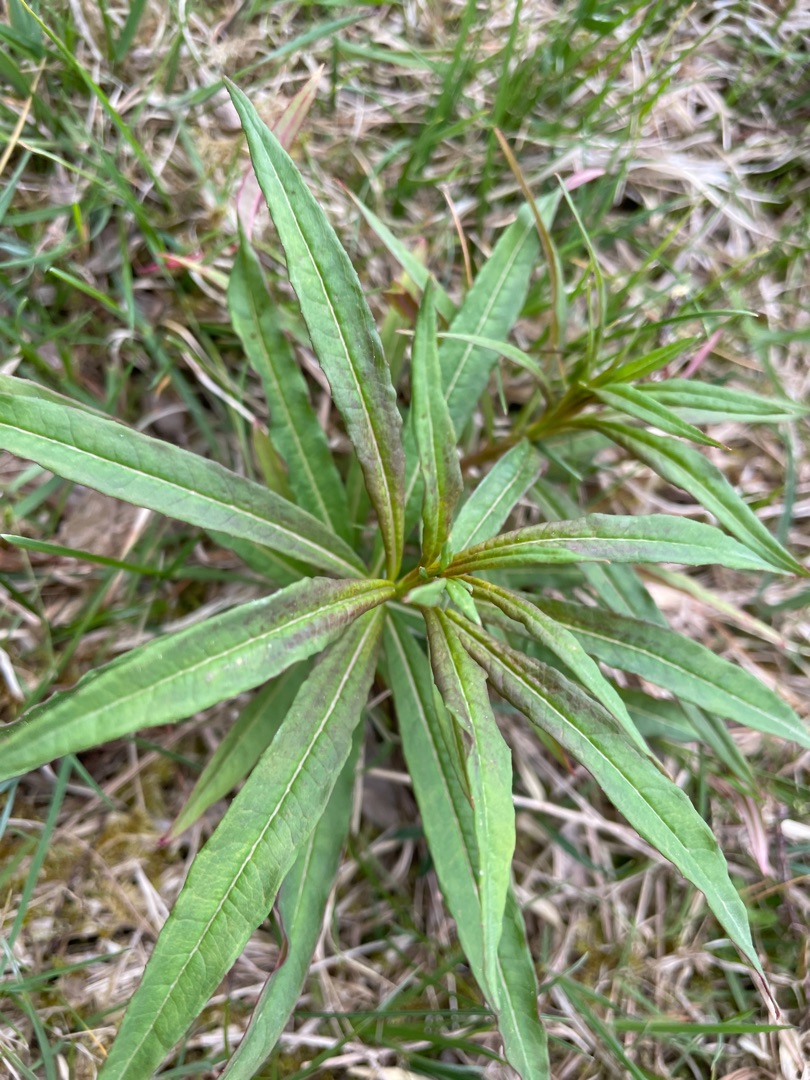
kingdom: Plantae
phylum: Tracheophyta
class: Magnoliopsida
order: Myrtales
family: Onagraceae
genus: Chamaenerion
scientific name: Chamaenerion angustifolium
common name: Gederams
